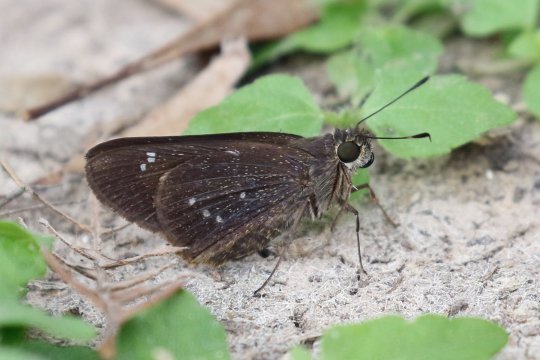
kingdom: Animalia
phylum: Arthropoda
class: Insecta
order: Lepidoptera
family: Hesperiidae
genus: Rhinthon
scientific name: Rhinthon cubana
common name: Osca Skipper
